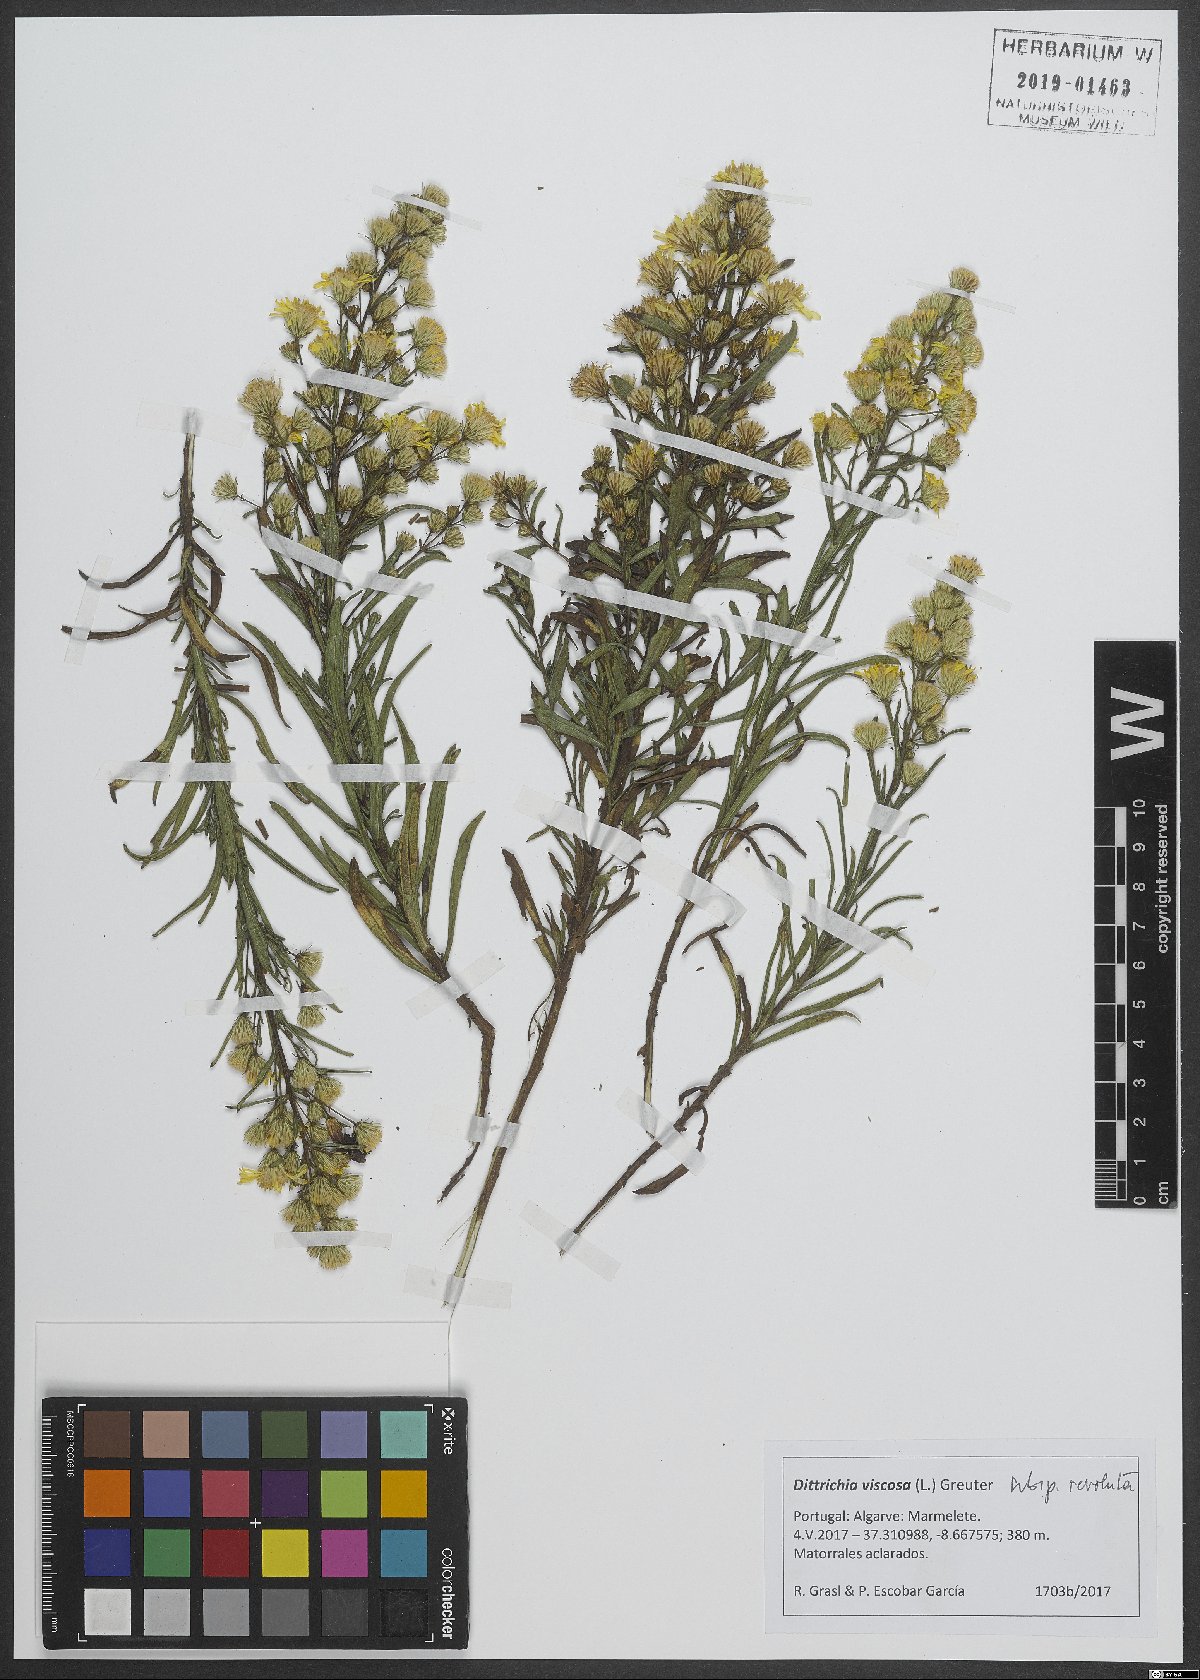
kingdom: Plantae
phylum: Tracheophyta
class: Magnoliopsida
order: Asterales
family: Asteraceae
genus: Dittrichia
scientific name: Dittrichia viscosa
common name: Woody fleabane
